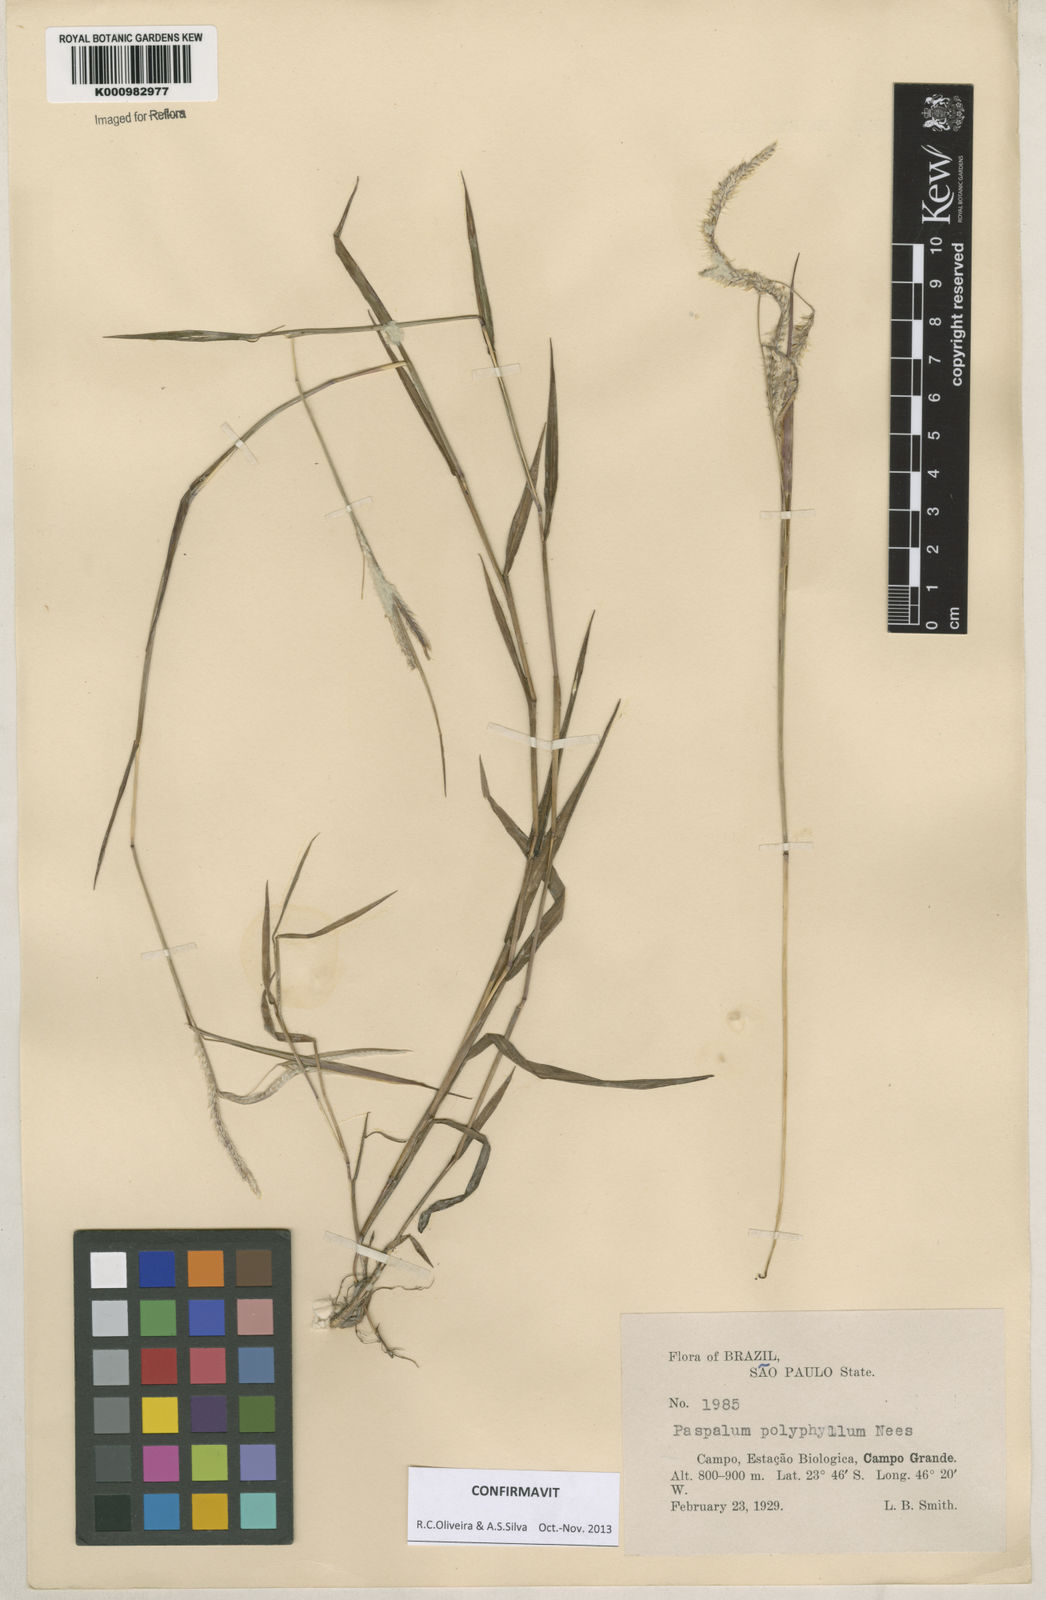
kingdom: Plantae
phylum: Tracheophyta
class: Liliopsida
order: Poales
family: Poaceae
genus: Paspalum
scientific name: Paspalum
